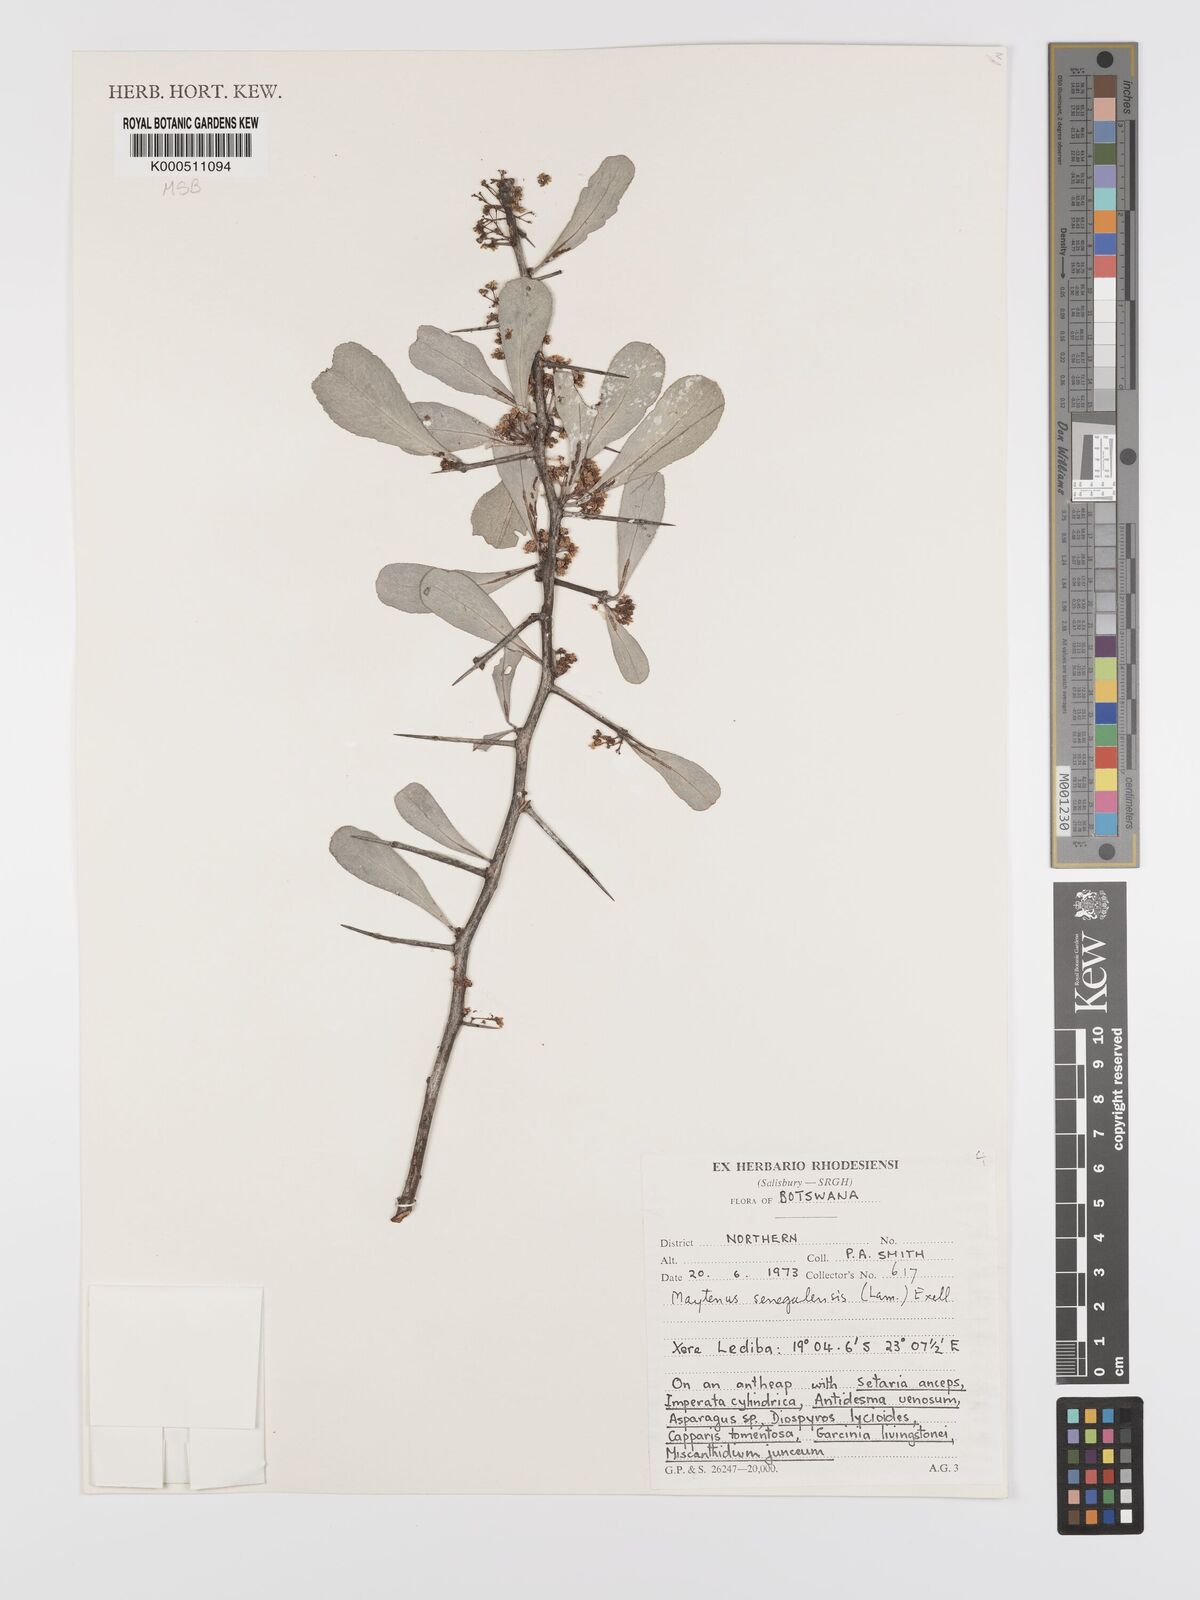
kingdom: Plantae
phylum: Tracheophyta
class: Magnoliopsida
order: Celastrales
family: Celastraceae
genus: Gymnosporia
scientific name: Gymnosporia senegalensis
